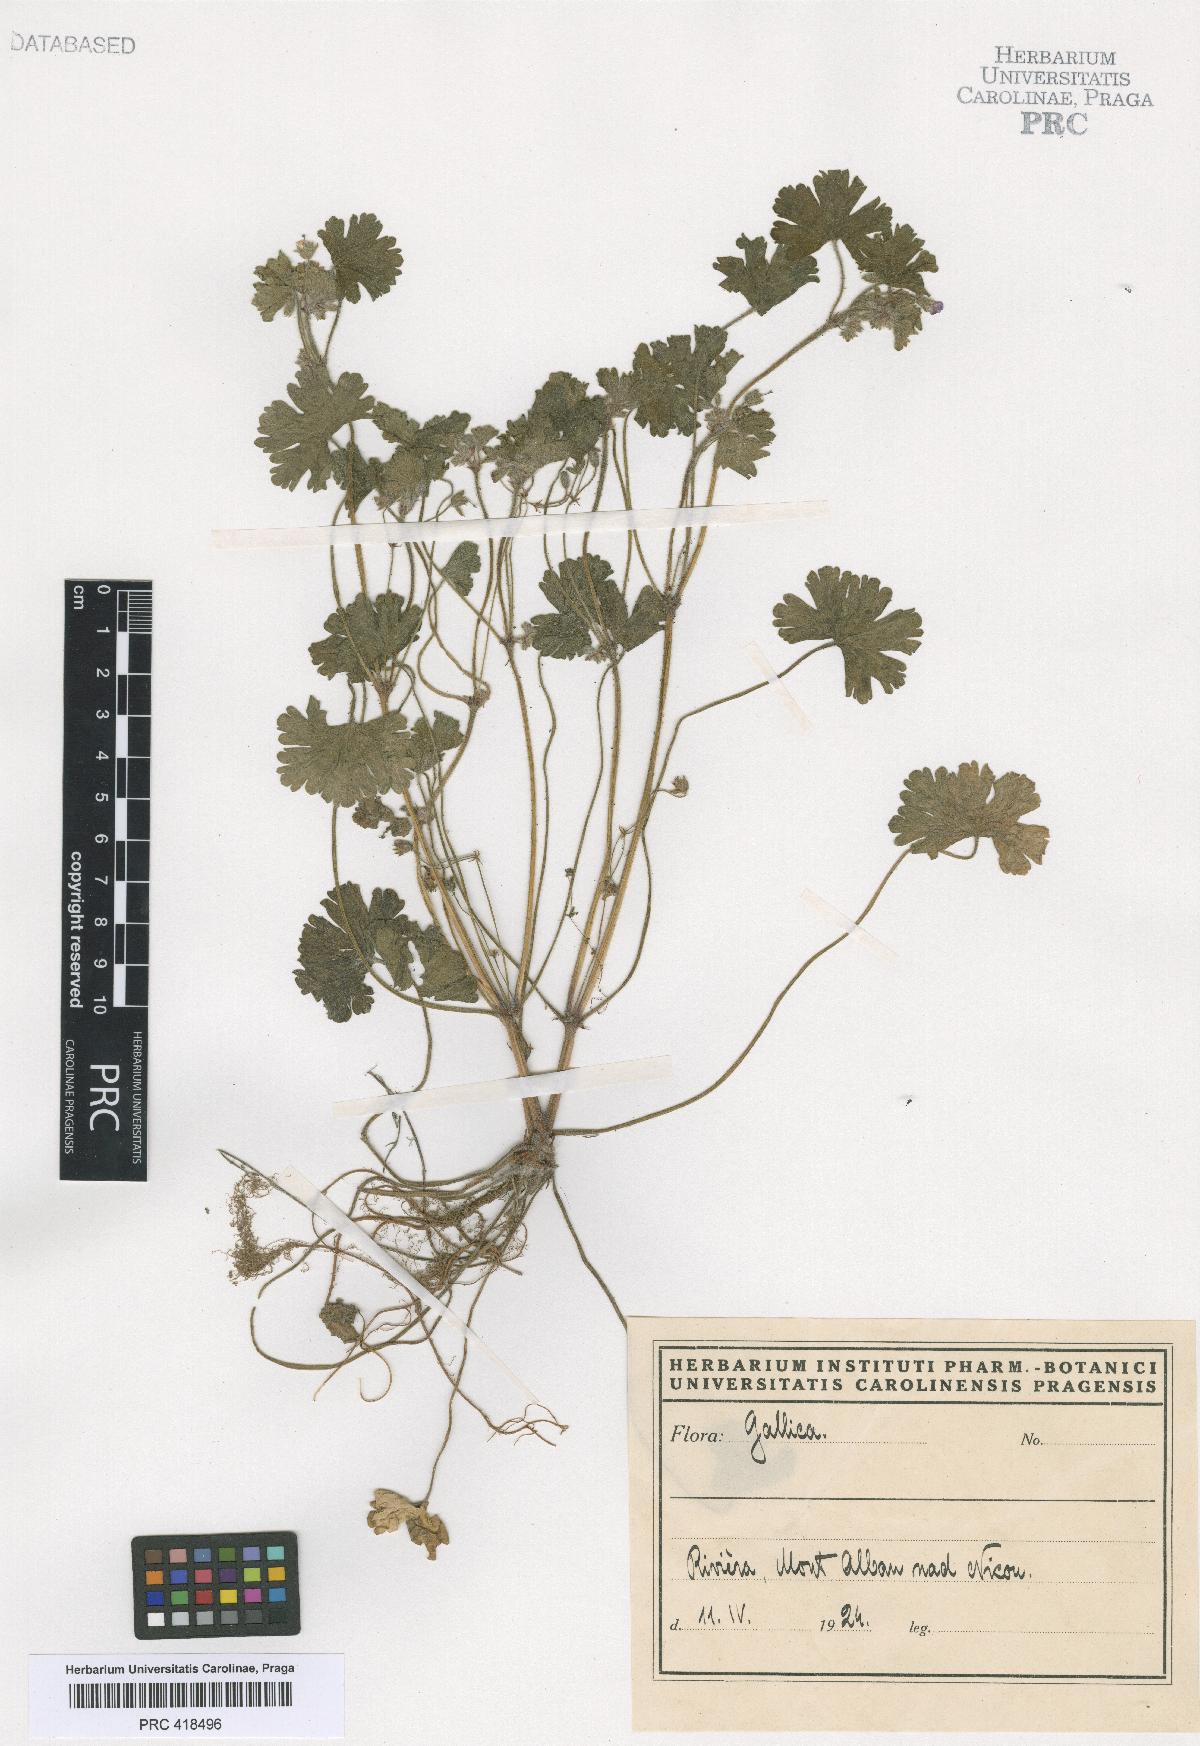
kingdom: Plantae
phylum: Tracheophyta
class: Magnoliopsida
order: Geraniales
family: Geraniaceae
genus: Geranium
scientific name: Geranium rotundifolium
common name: Round-leaved crane's-bill
